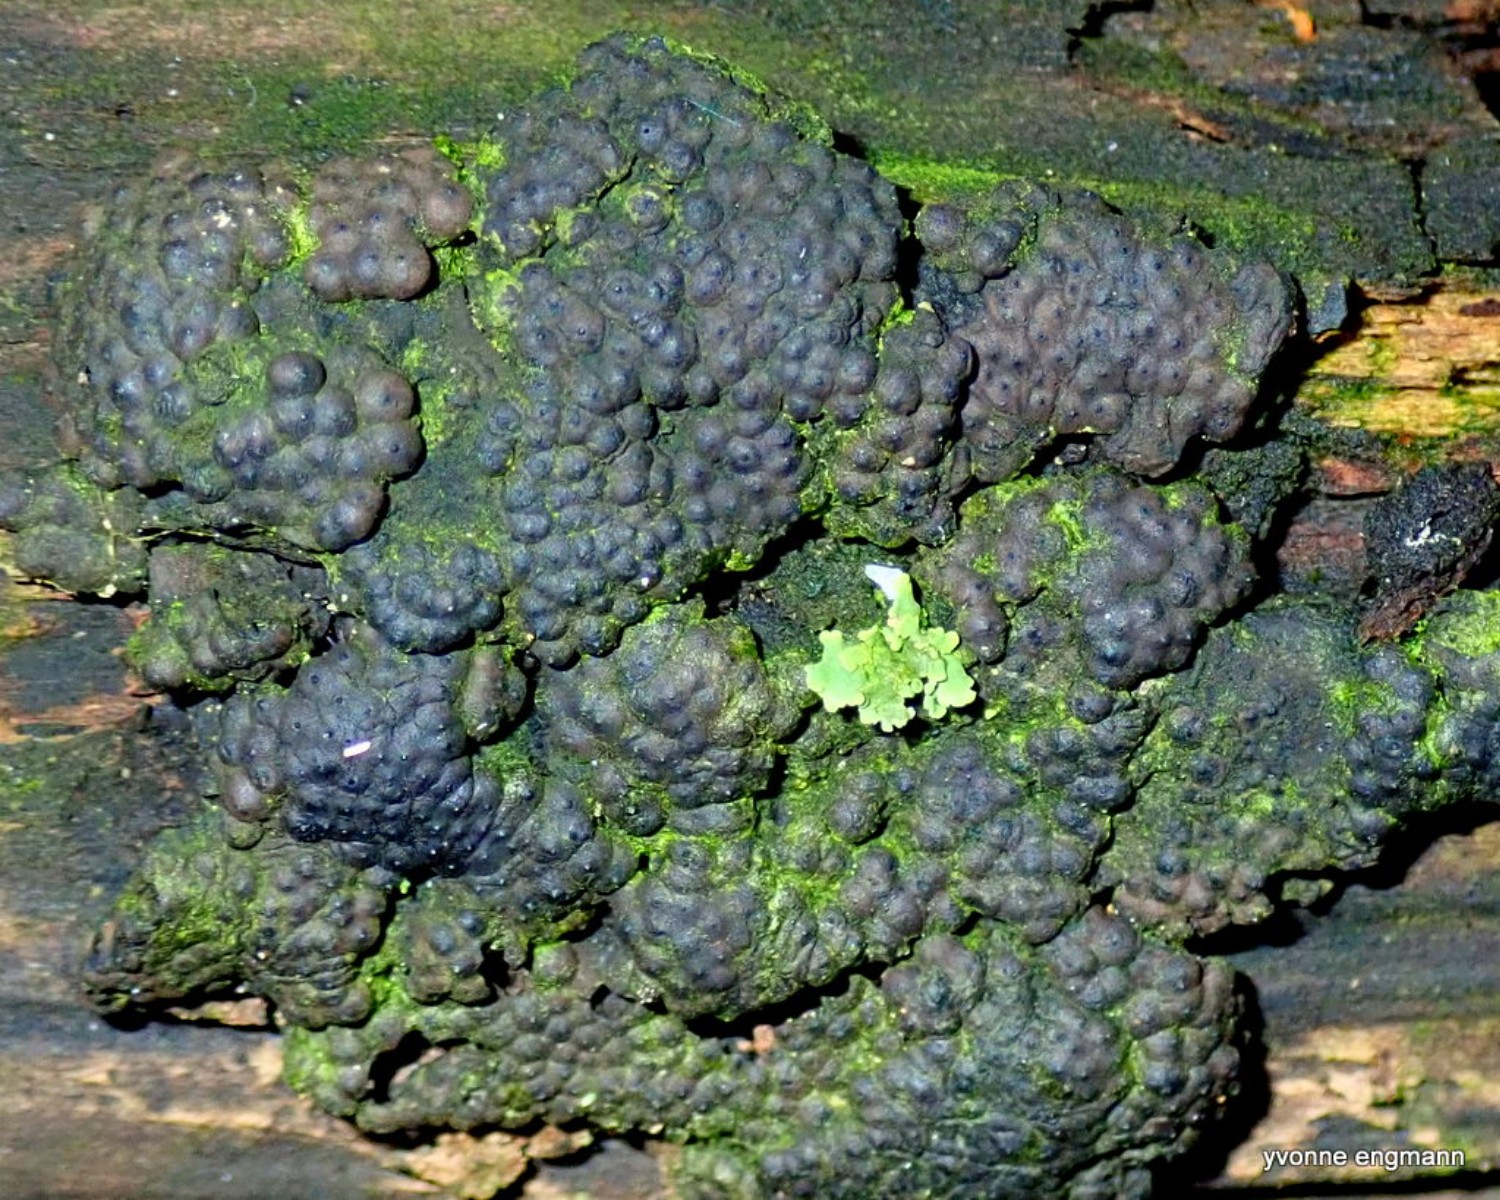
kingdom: Fungi
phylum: Ascomycota
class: Sordariomycetes
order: Xylariales
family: Hypoxylaceae
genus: Jackrogersella
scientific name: Jackrogersella
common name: kulbær
